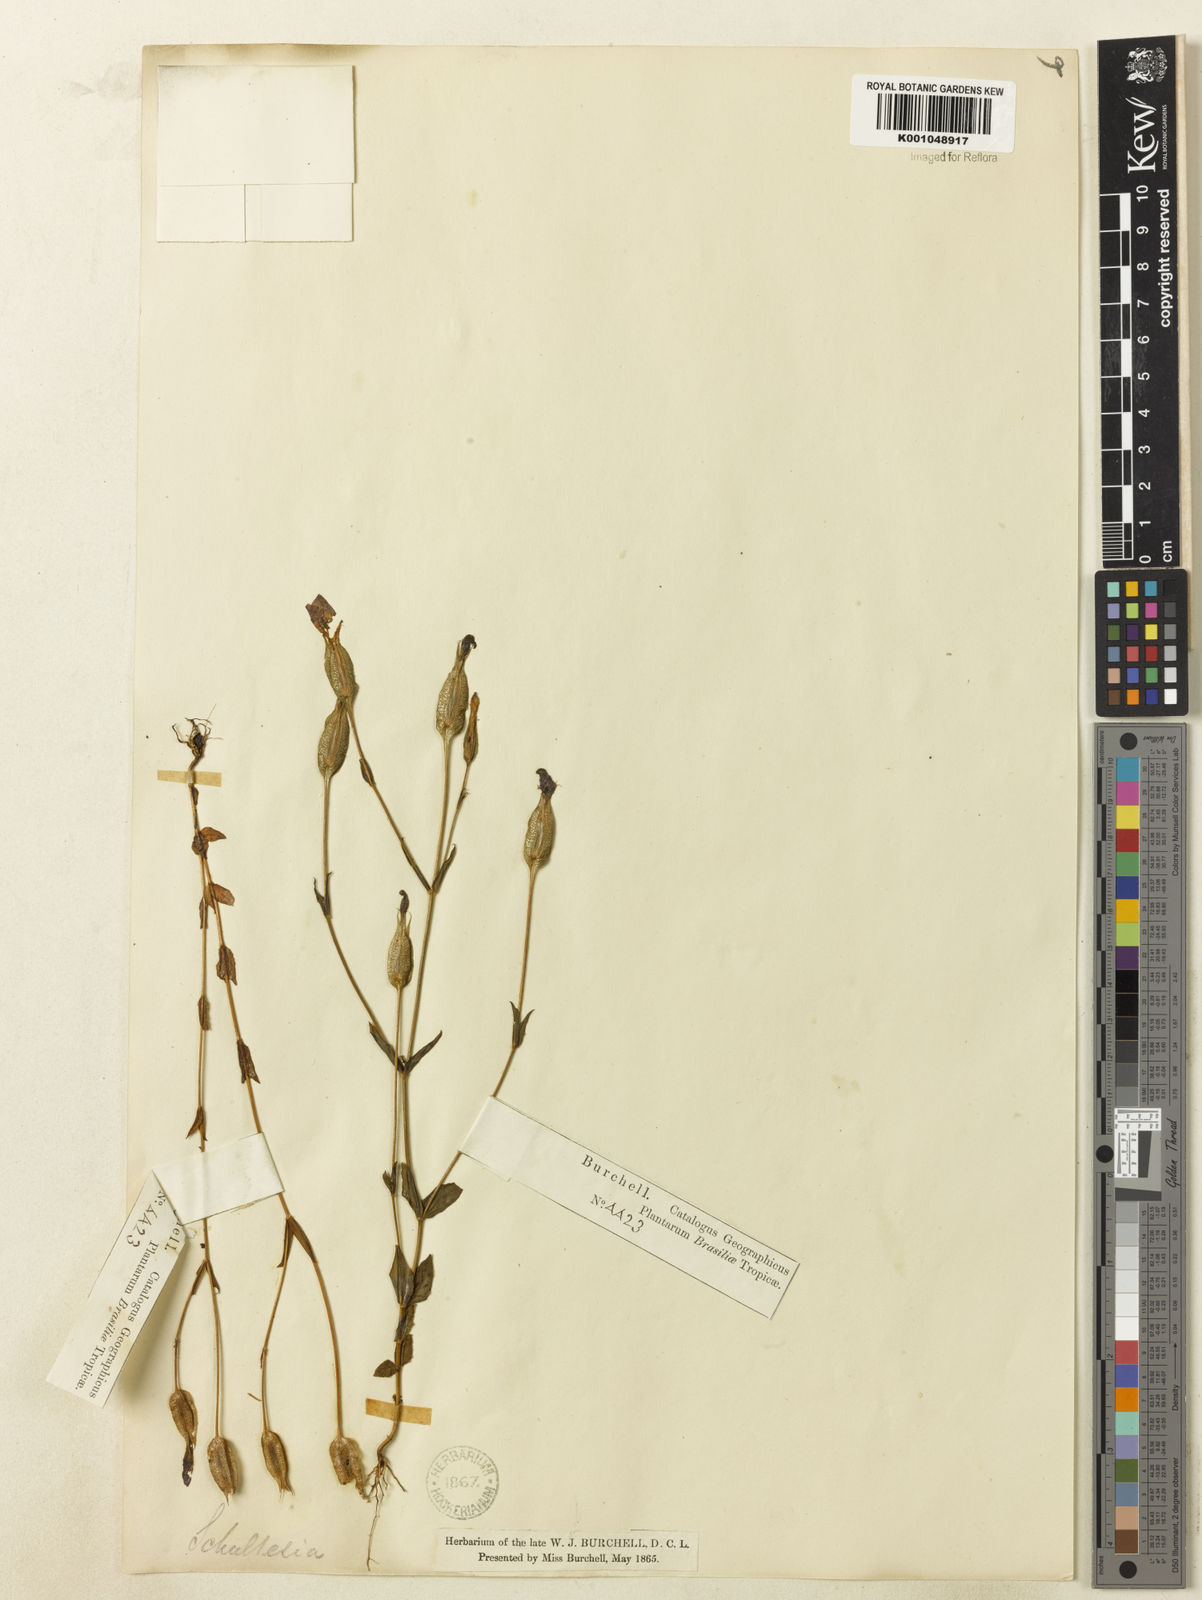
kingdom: Plantae
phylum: Tracheophyta
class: Magnoliopsida
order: Gentianales
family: Gentianaceae
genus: Schultesia
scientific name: Schultesia
